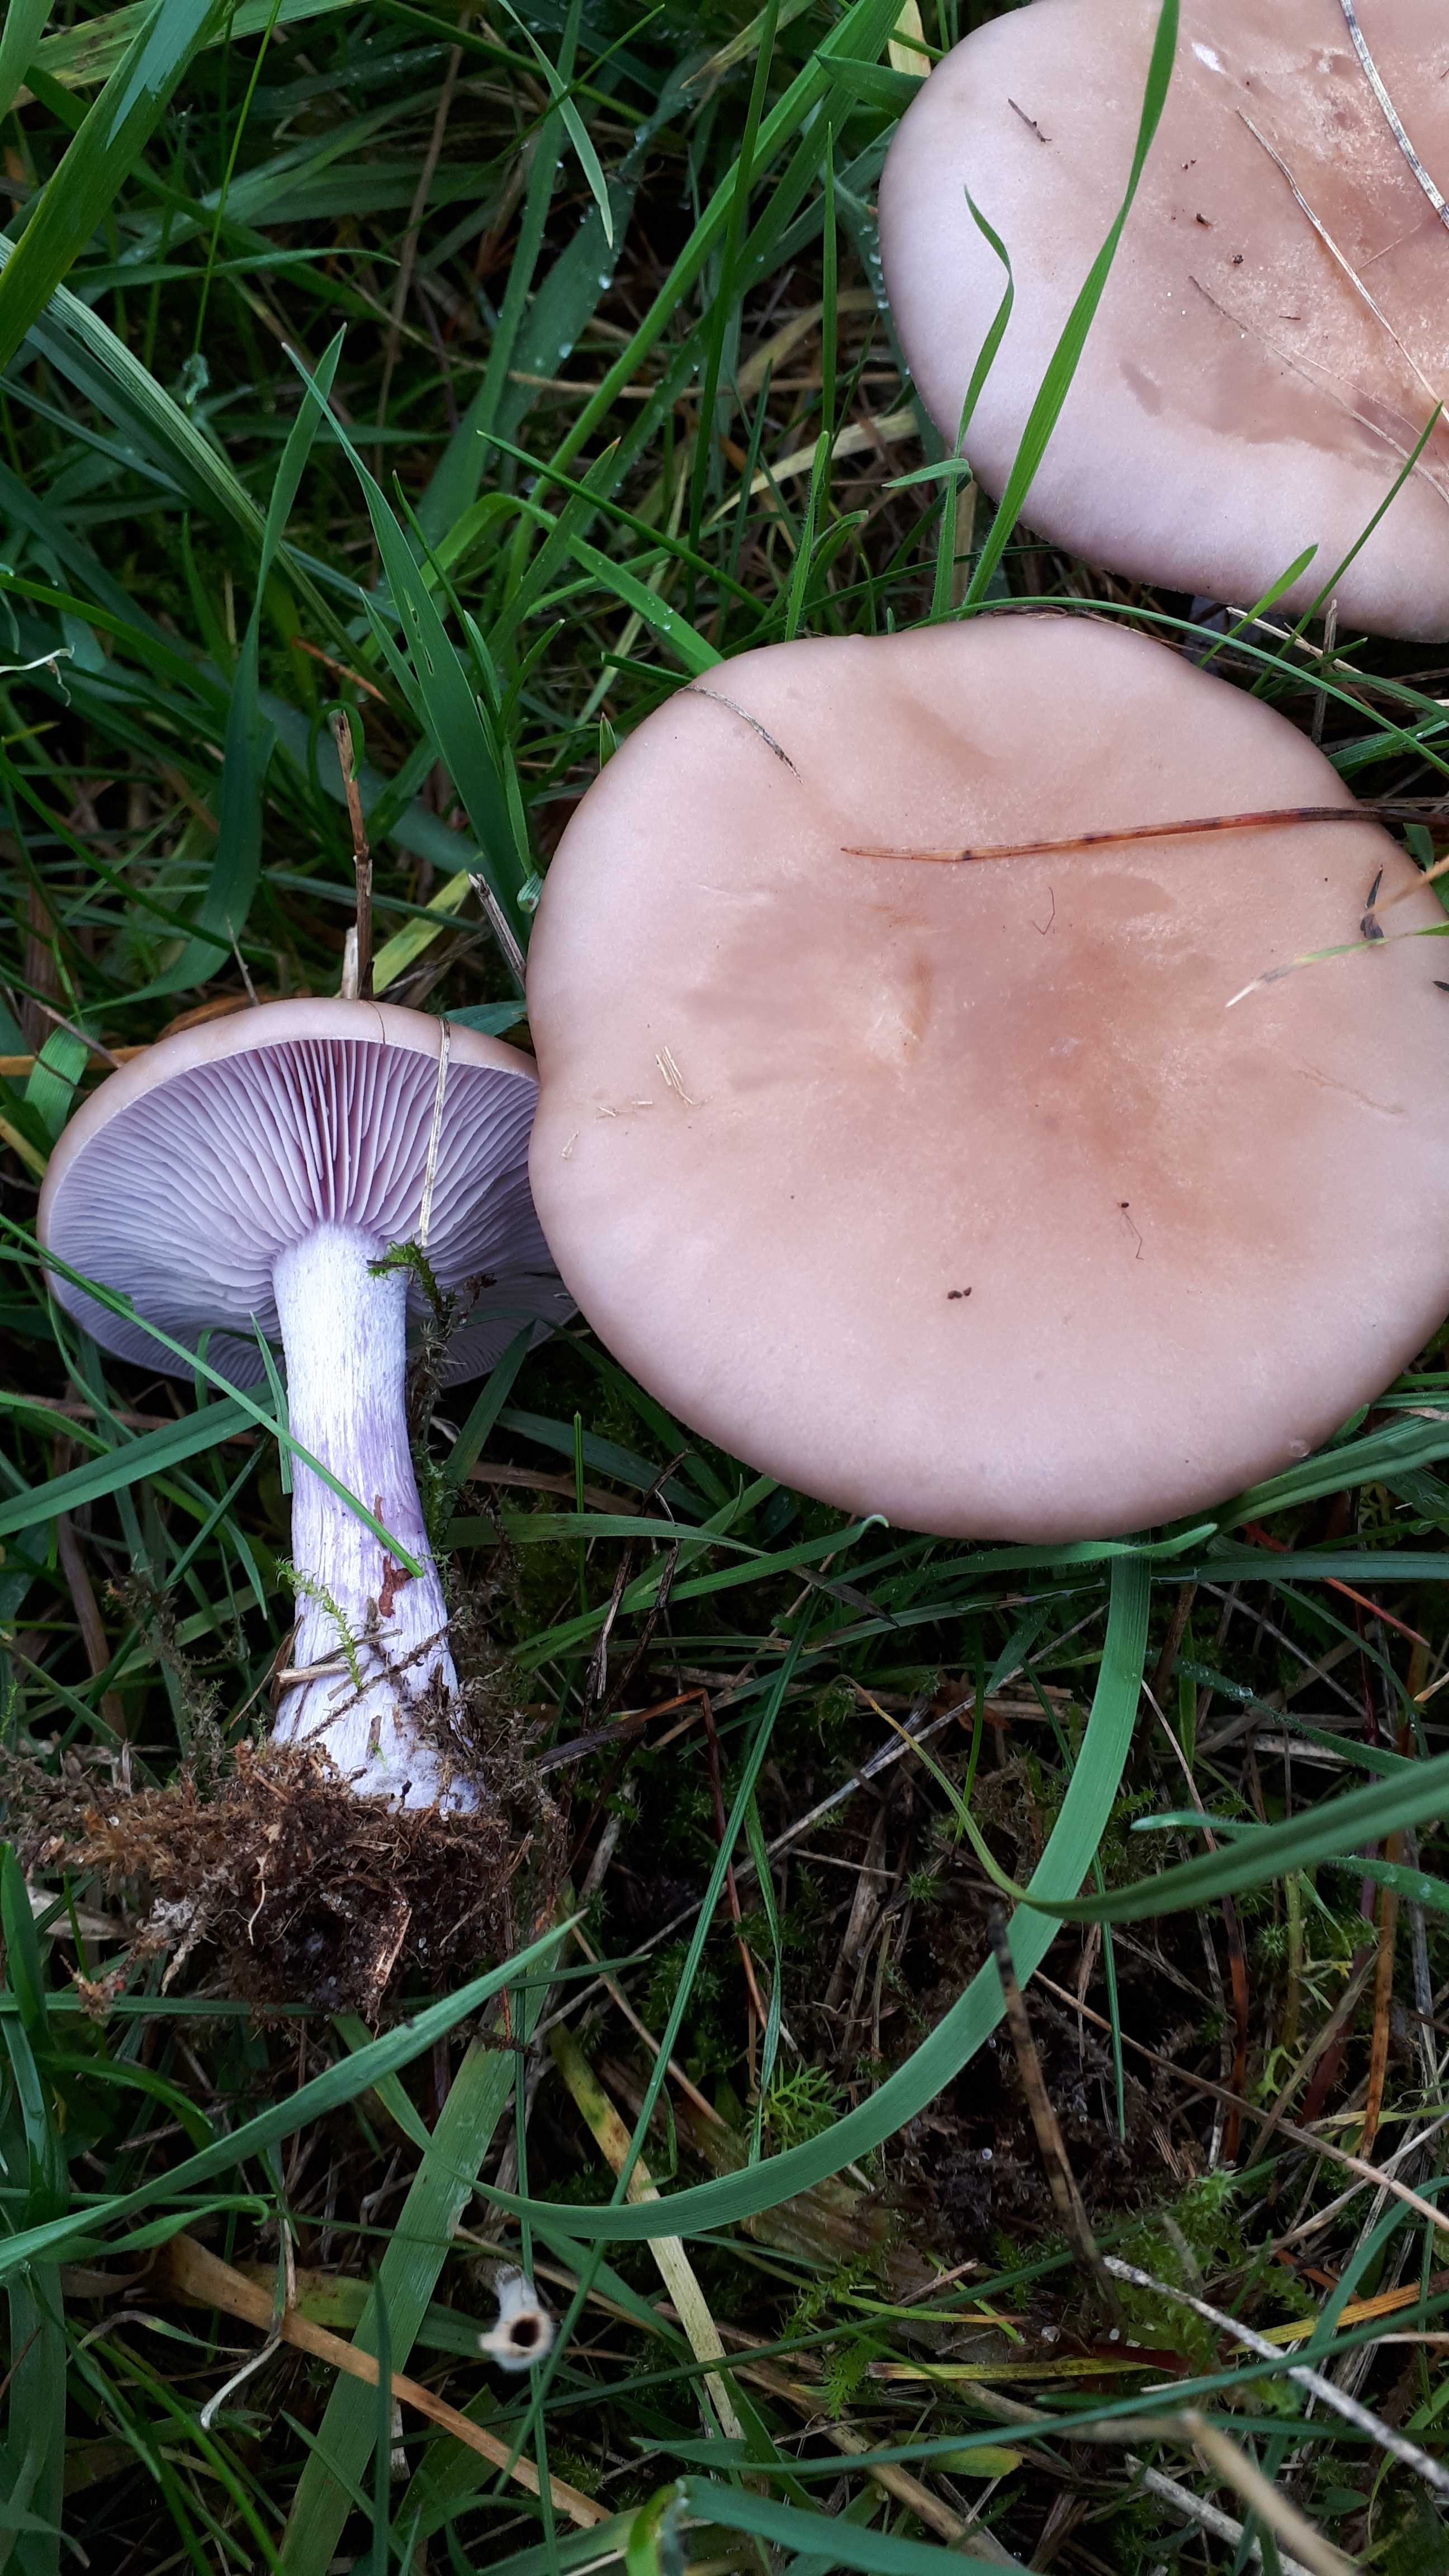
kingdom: Fungi
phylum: Basidiomycota
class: Agaricomycetes
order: Agaricales
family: Tricholomataceae
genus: Lepista
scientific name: Lepista nuda
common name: violet hekseringshat
